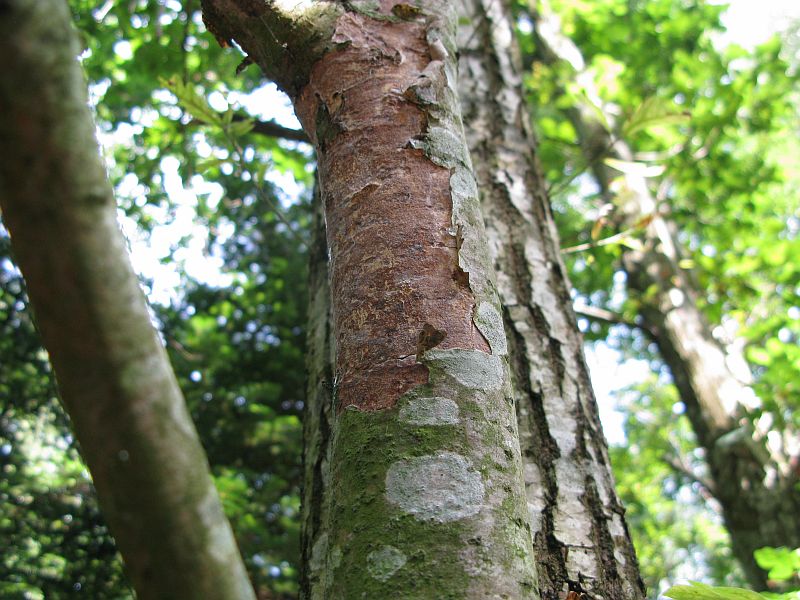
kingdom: Fungi
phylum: Basidiomycota
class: Agaricomycetes
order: Corticiales
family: Vuilleminiaceae
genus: Vuilleminia
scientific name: Vuilleminia comedens
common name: almindelig barksprænger
